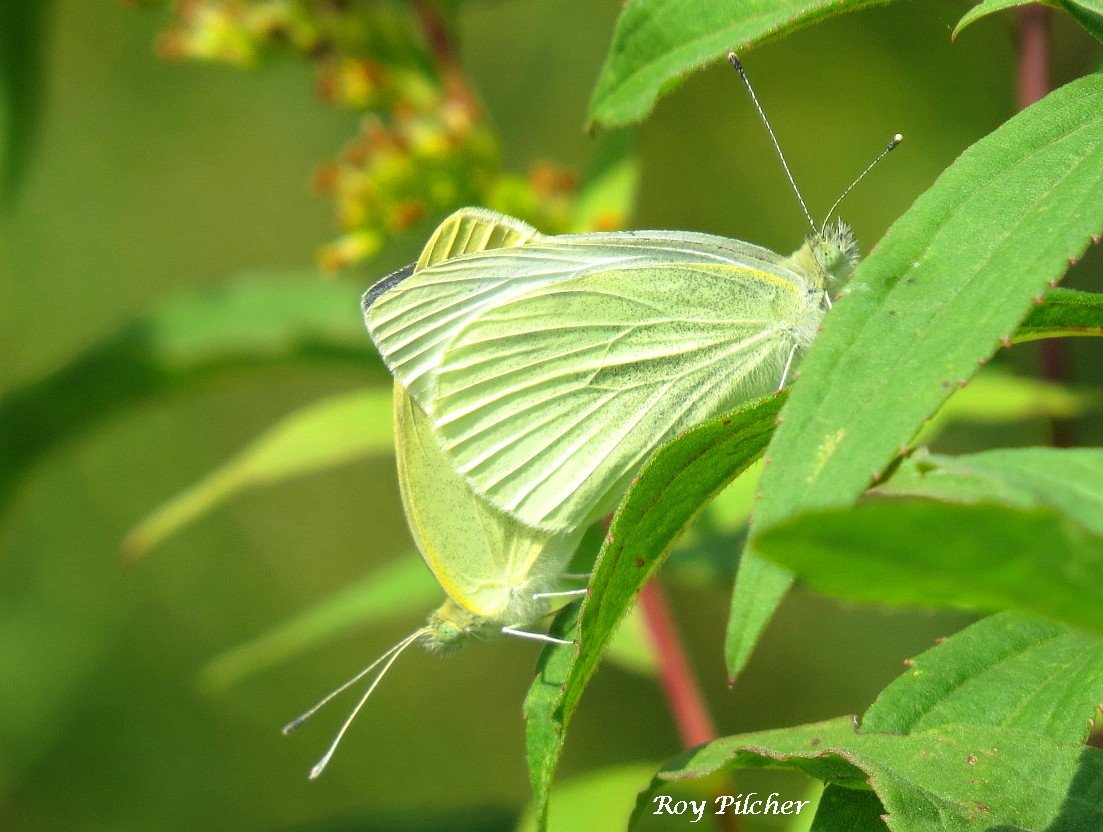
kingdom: Animalia
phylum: Arthropoda
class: Insecta
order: Lepidoptera
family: Pieridae
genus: Pieris
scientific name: Pieris rapae
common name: Cabbage White
